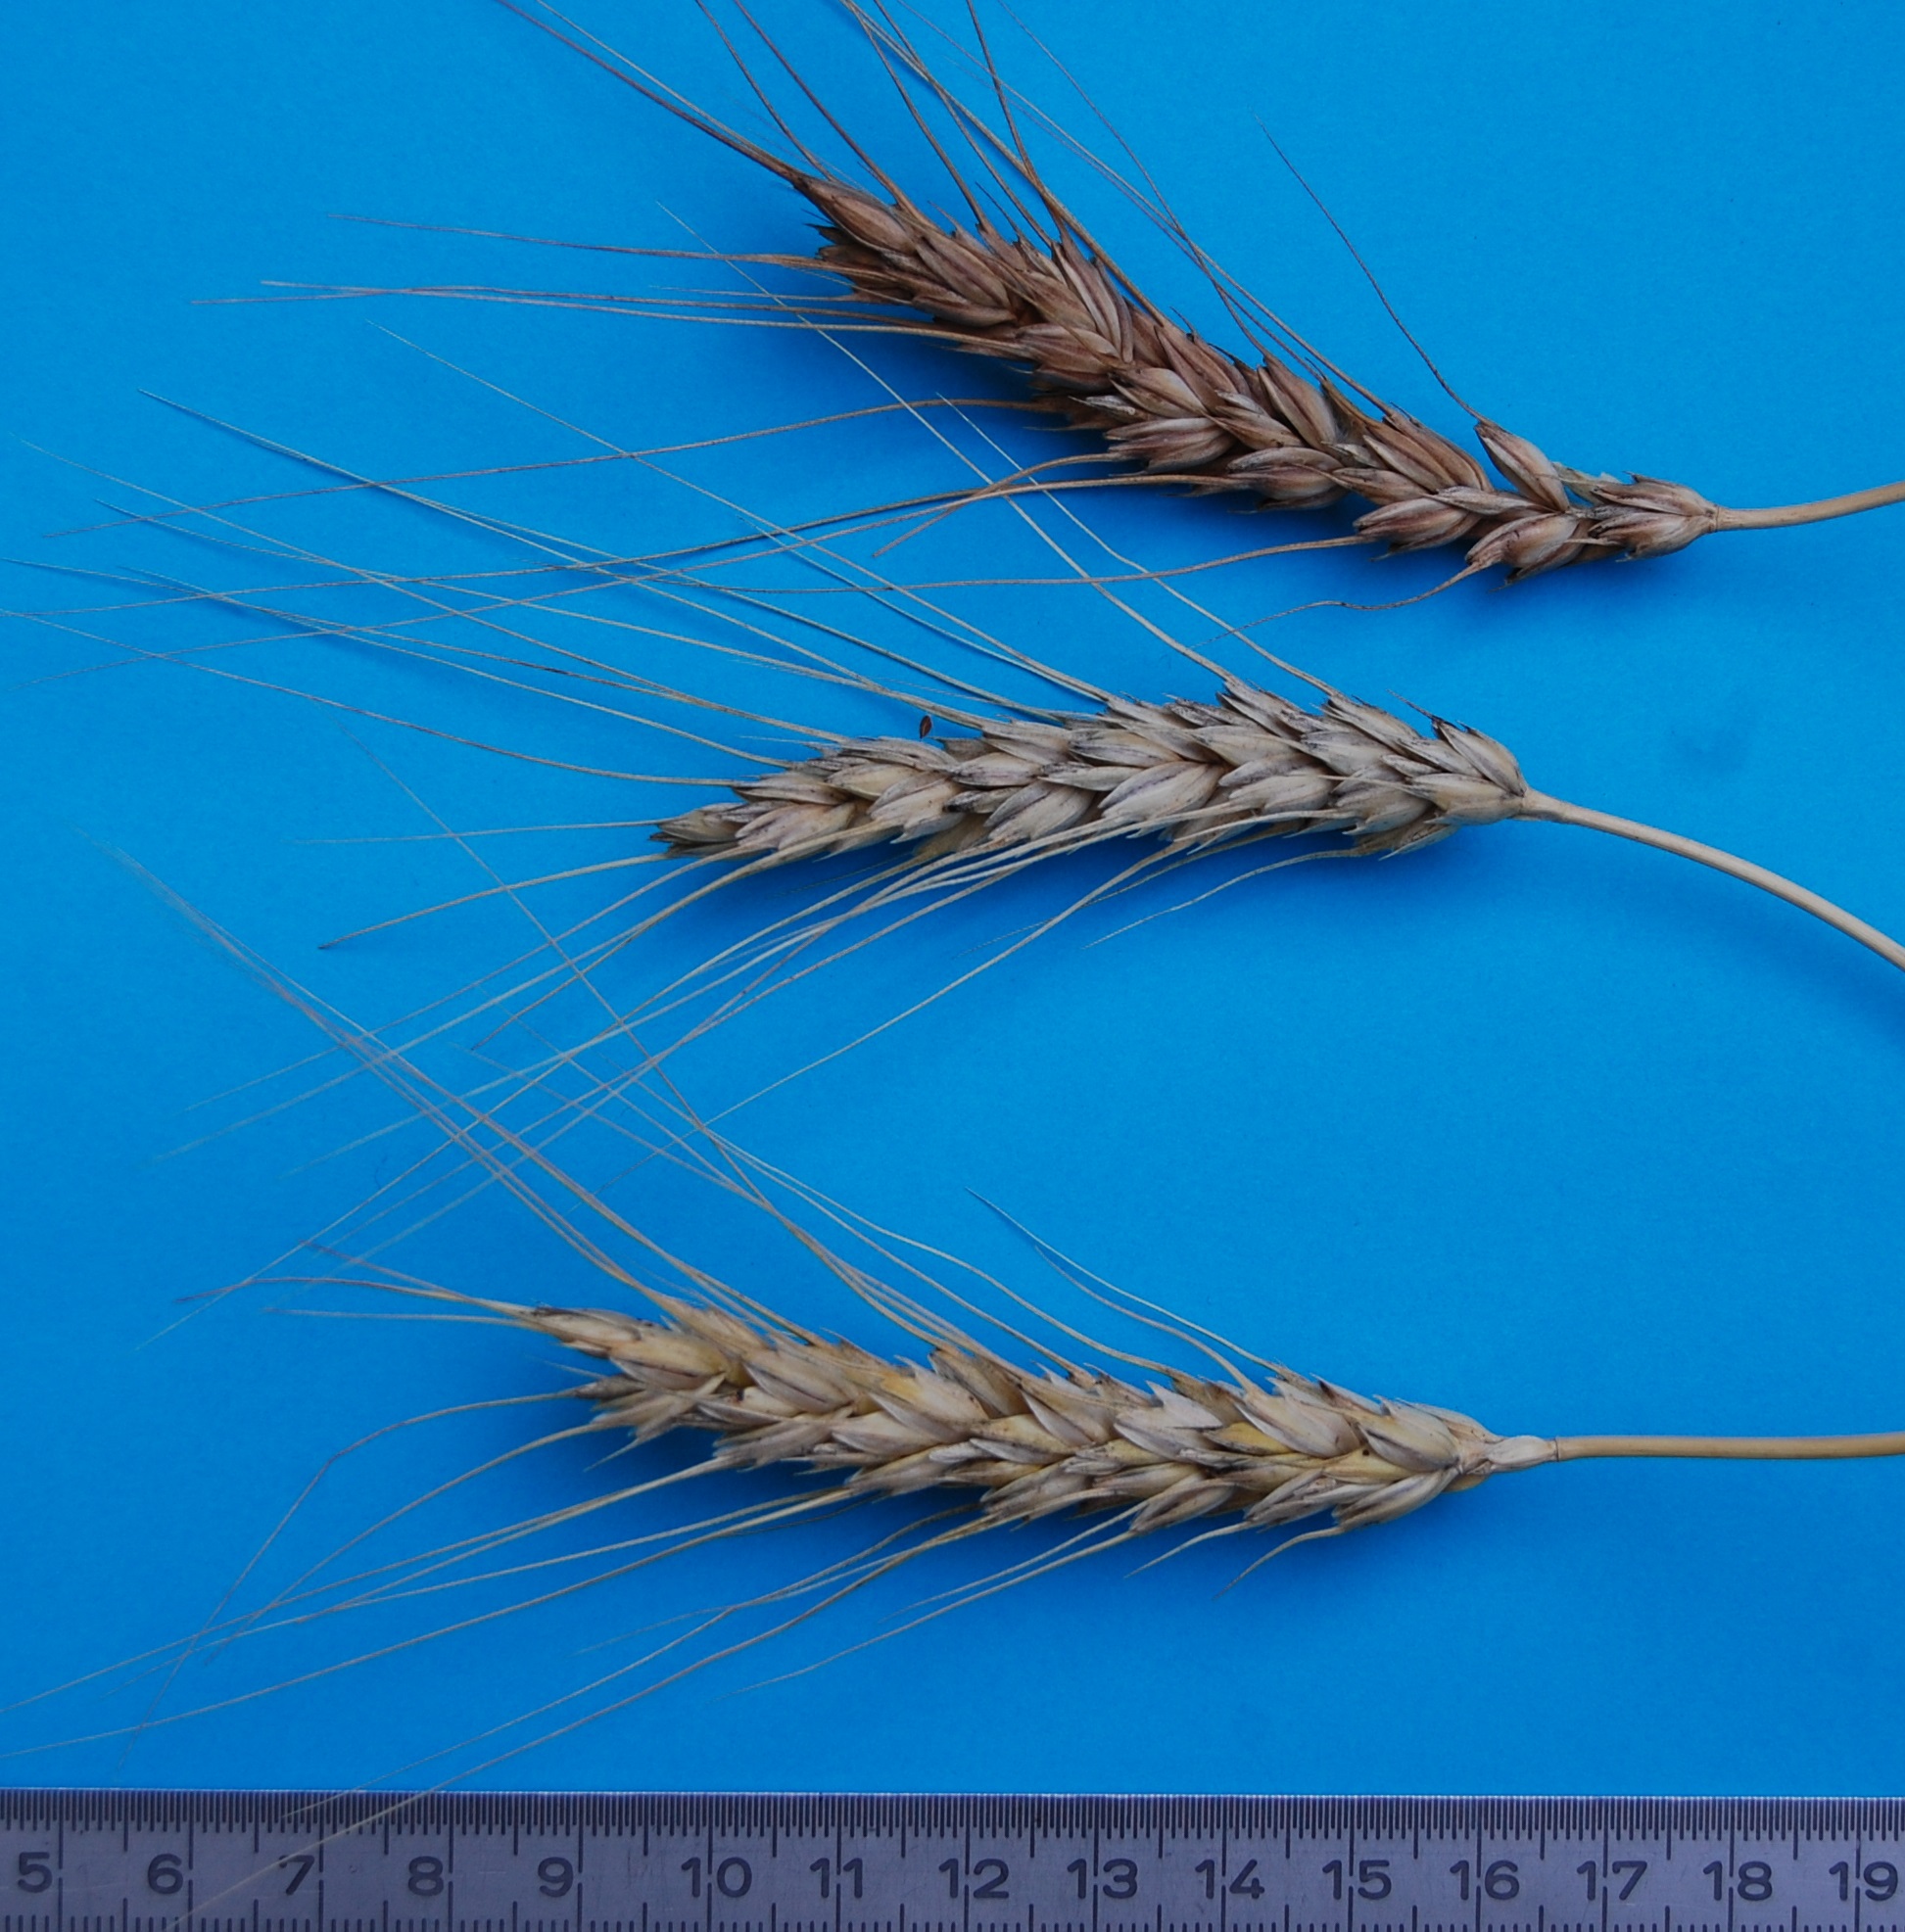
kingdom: Plantae
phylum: Tracheophyta
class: Liliopsida
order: Poales
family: Poaceae
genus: Triticum
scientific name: Triticum aestivum
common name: Common wheat
